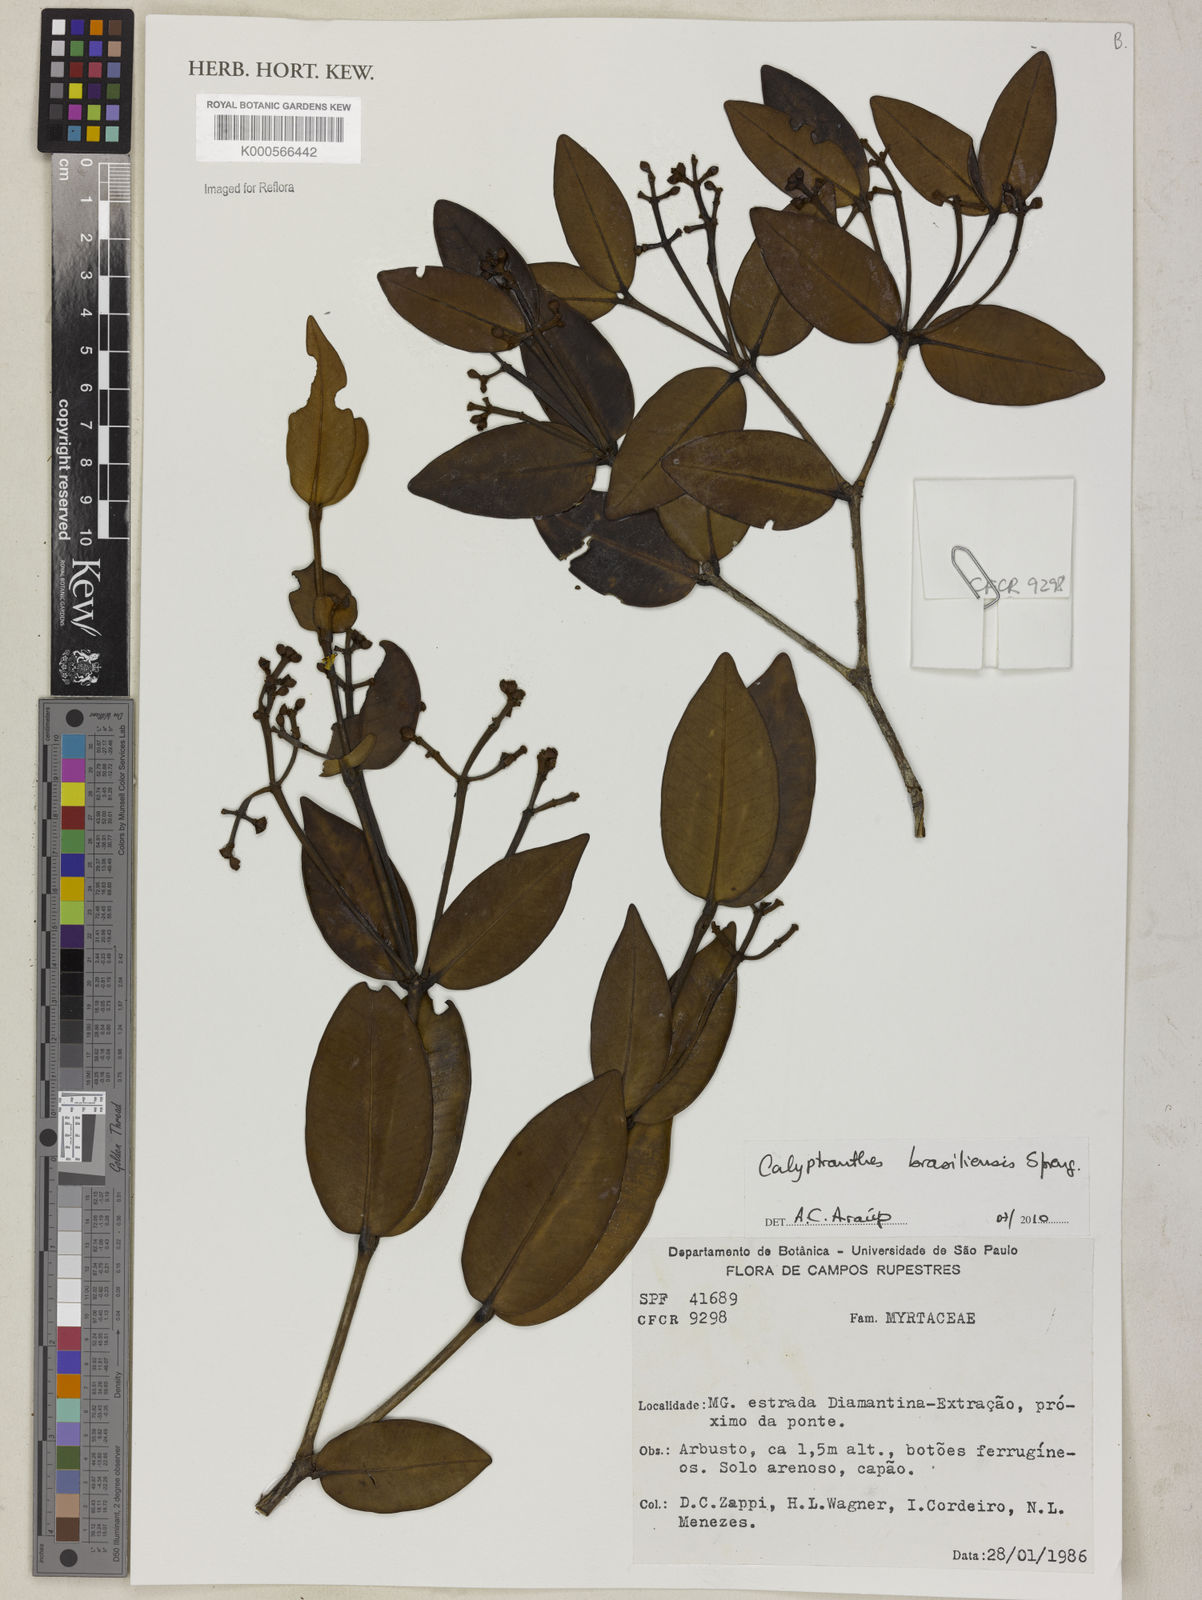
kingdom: Plantae
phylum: Tracheophyta
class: Magnoliopsida
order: Myrtales
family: Myrtaceae
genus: Myrcia
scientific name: Myrcia neobrasiliensis
